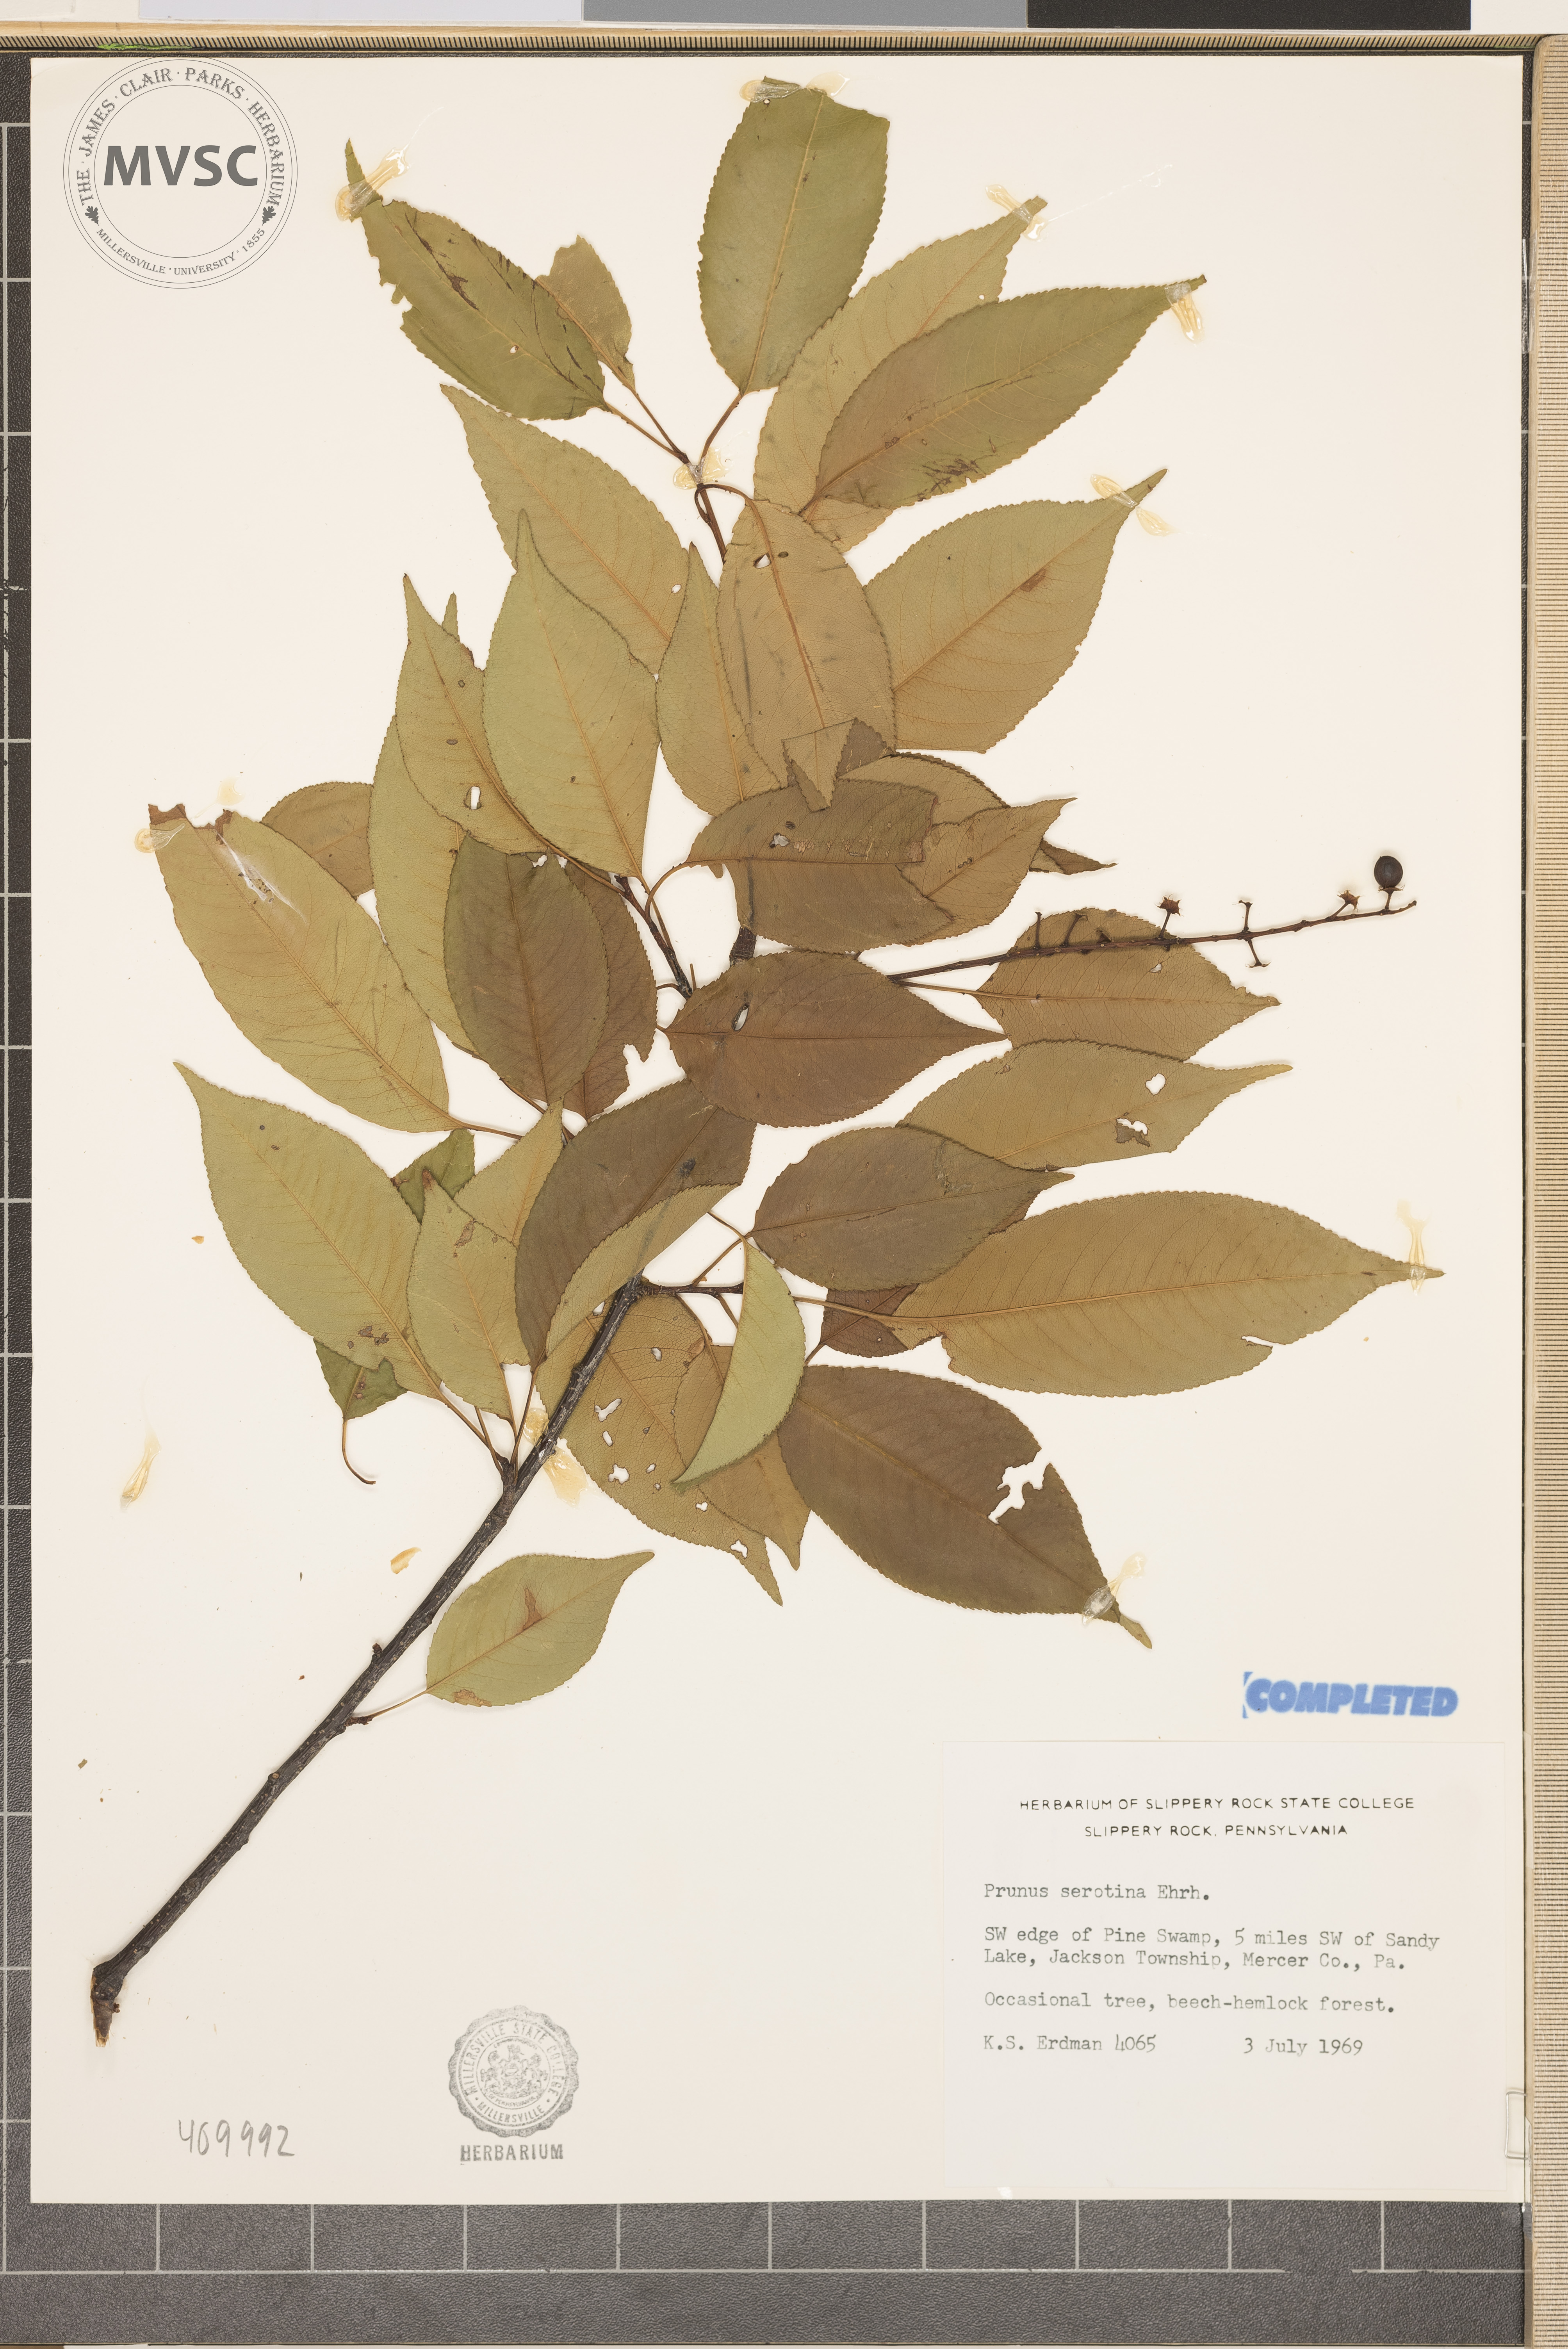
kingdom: Plantae
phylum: Tracheophyta
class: Magnoliopsida
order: Rosales
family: Rosaceae
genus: Prunus
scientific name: Prunus serotina
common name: Black cherry
